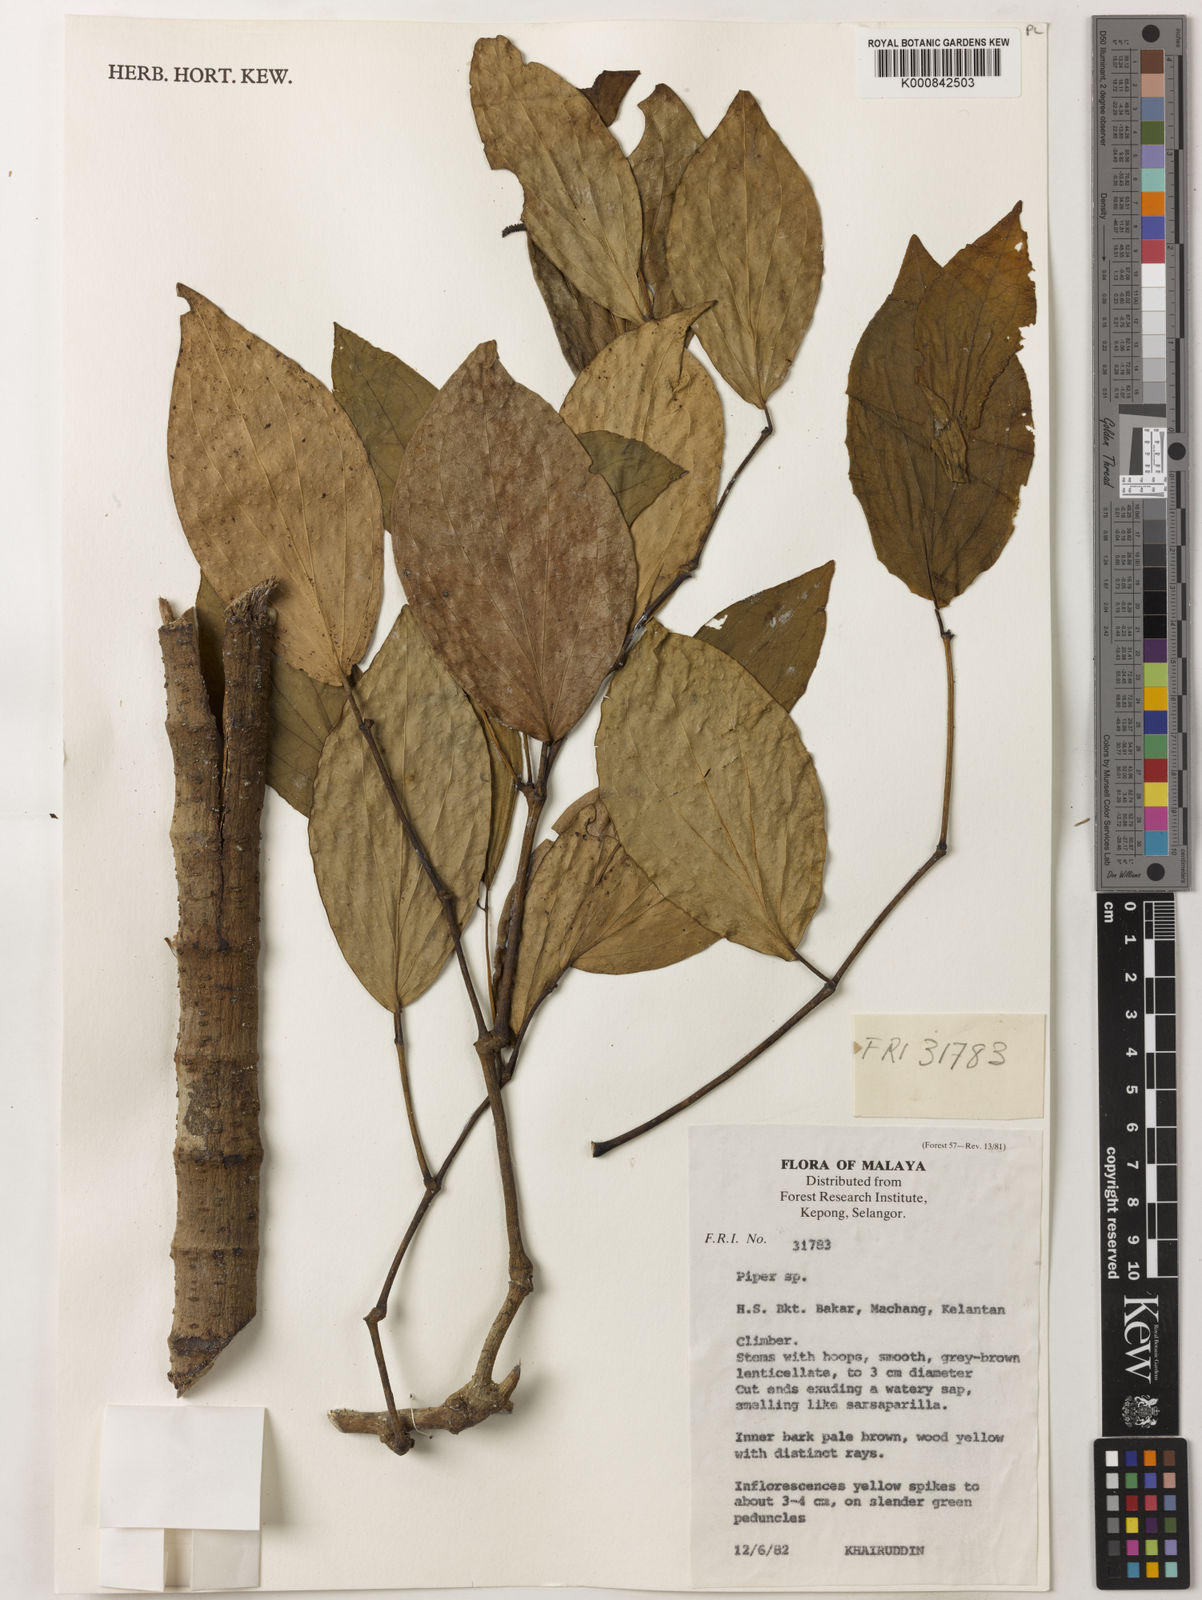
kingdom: Plantae
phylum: Tracheophyta
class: Magnoliopsida
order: Piperales
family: Piperaceae
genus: Piper
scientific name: Piper
